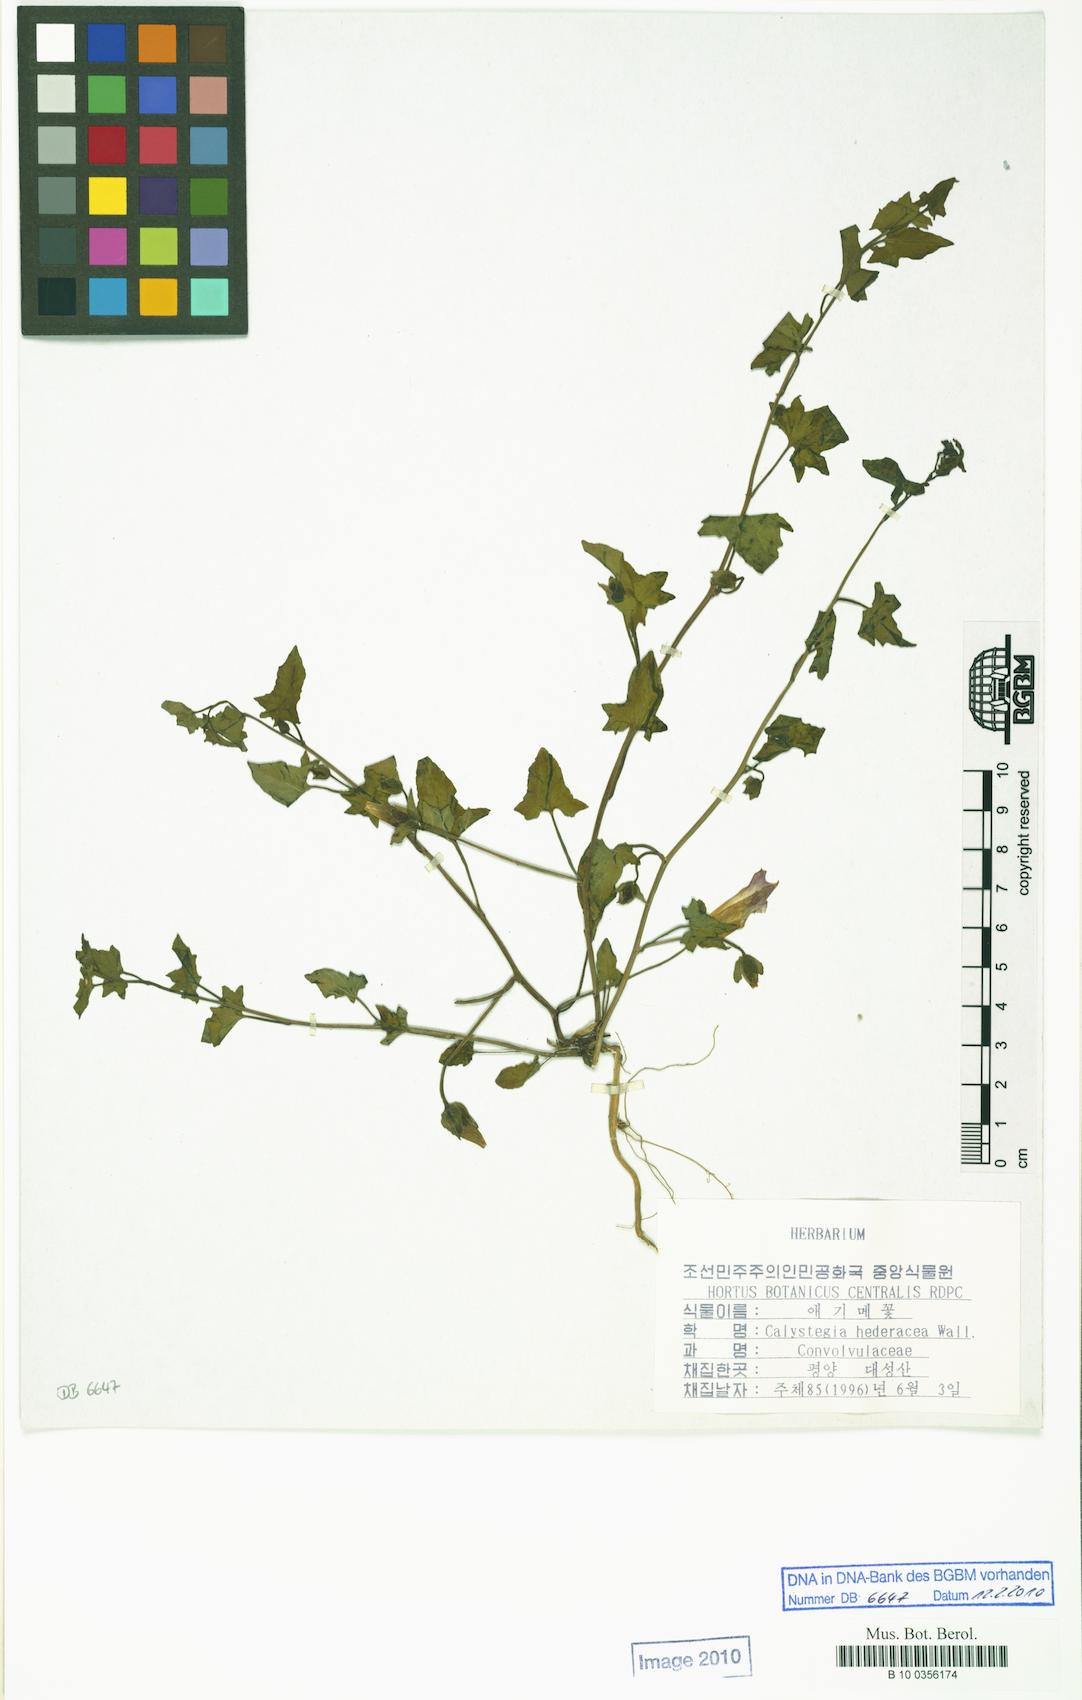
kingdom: Plantae
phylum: Tracheophyta
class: Magnoliopsida
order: Solanales
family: Convolvulaceae
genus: Calystegia
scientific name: Calystegia hederacea
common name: Japanese false bindweed
